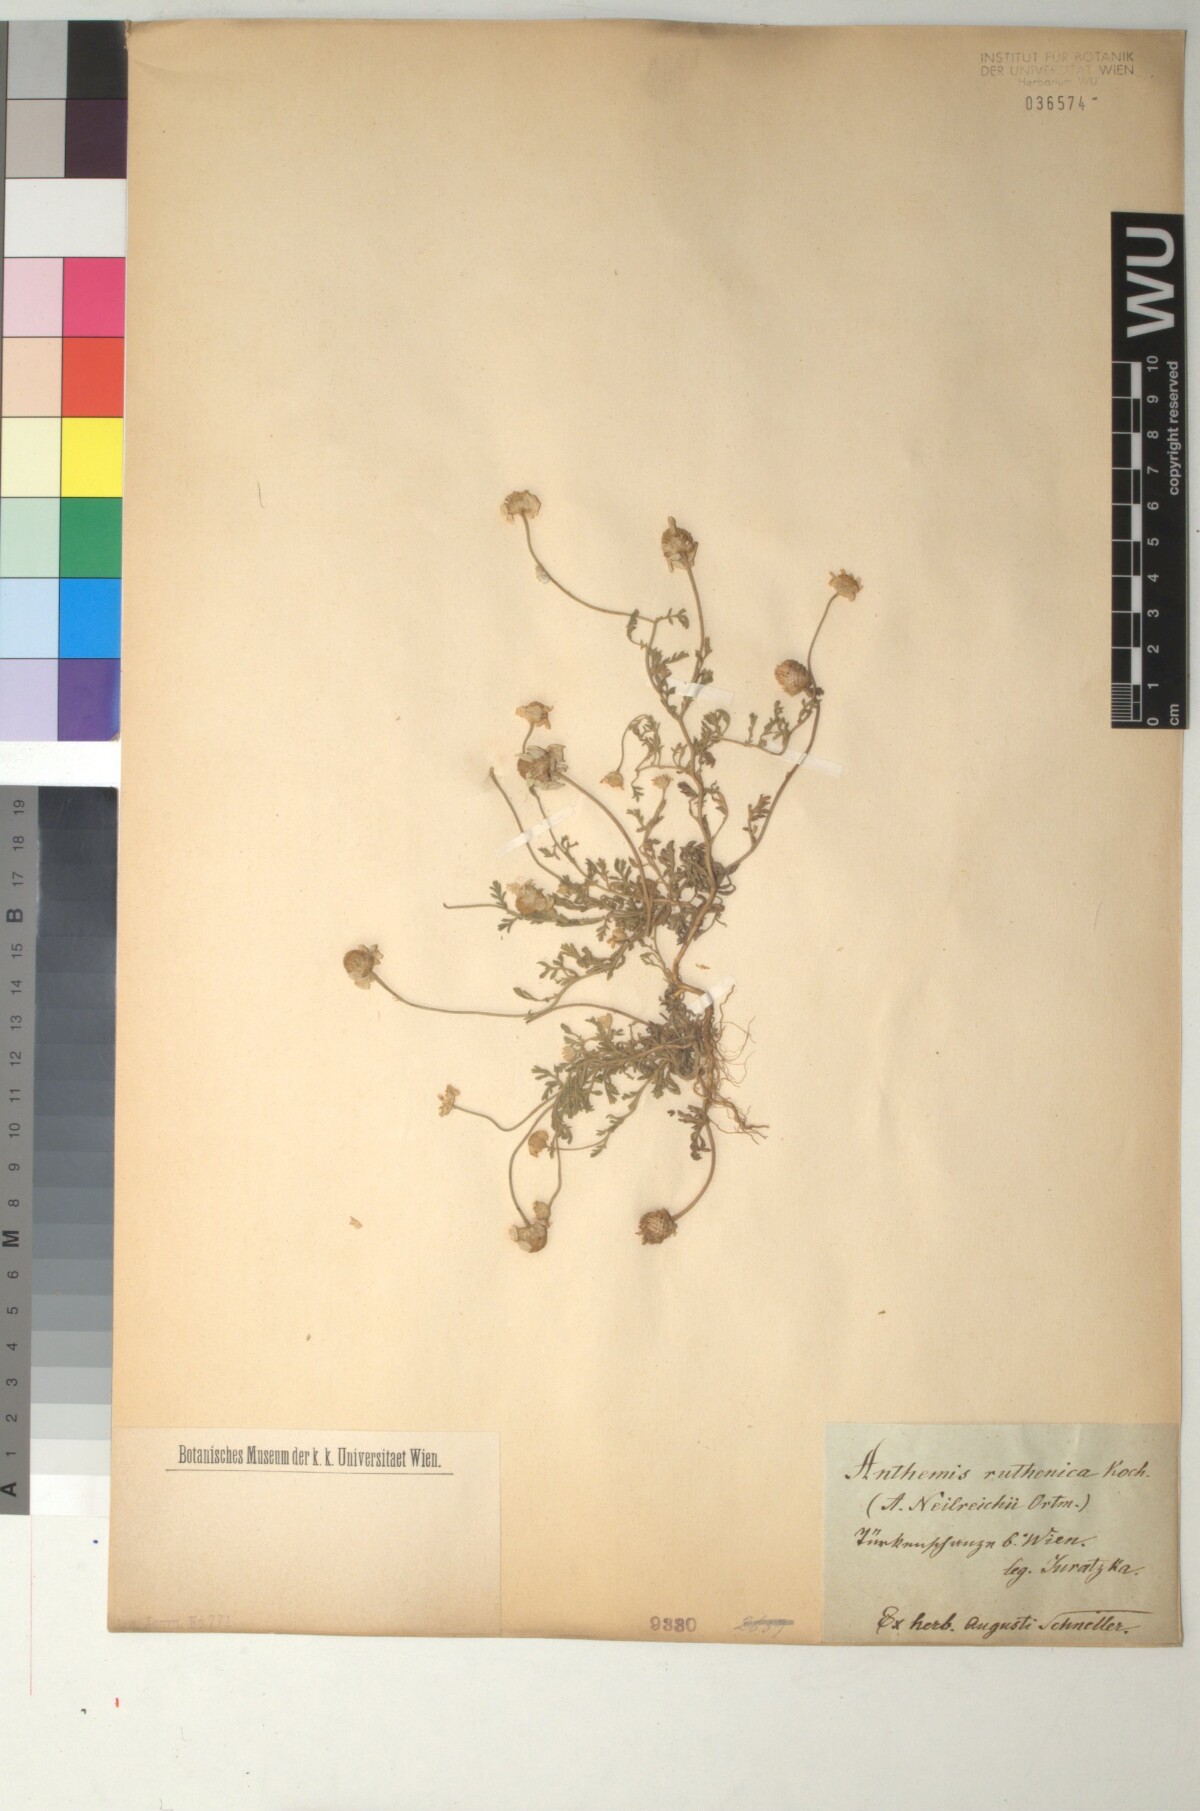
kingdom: Plantae
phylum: Tracheophyta
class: Magnoliopsida
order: Asterales
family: Asteraceae
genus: Anthemis
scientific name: Anthemis ruthenica
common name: Eastern chamomile
